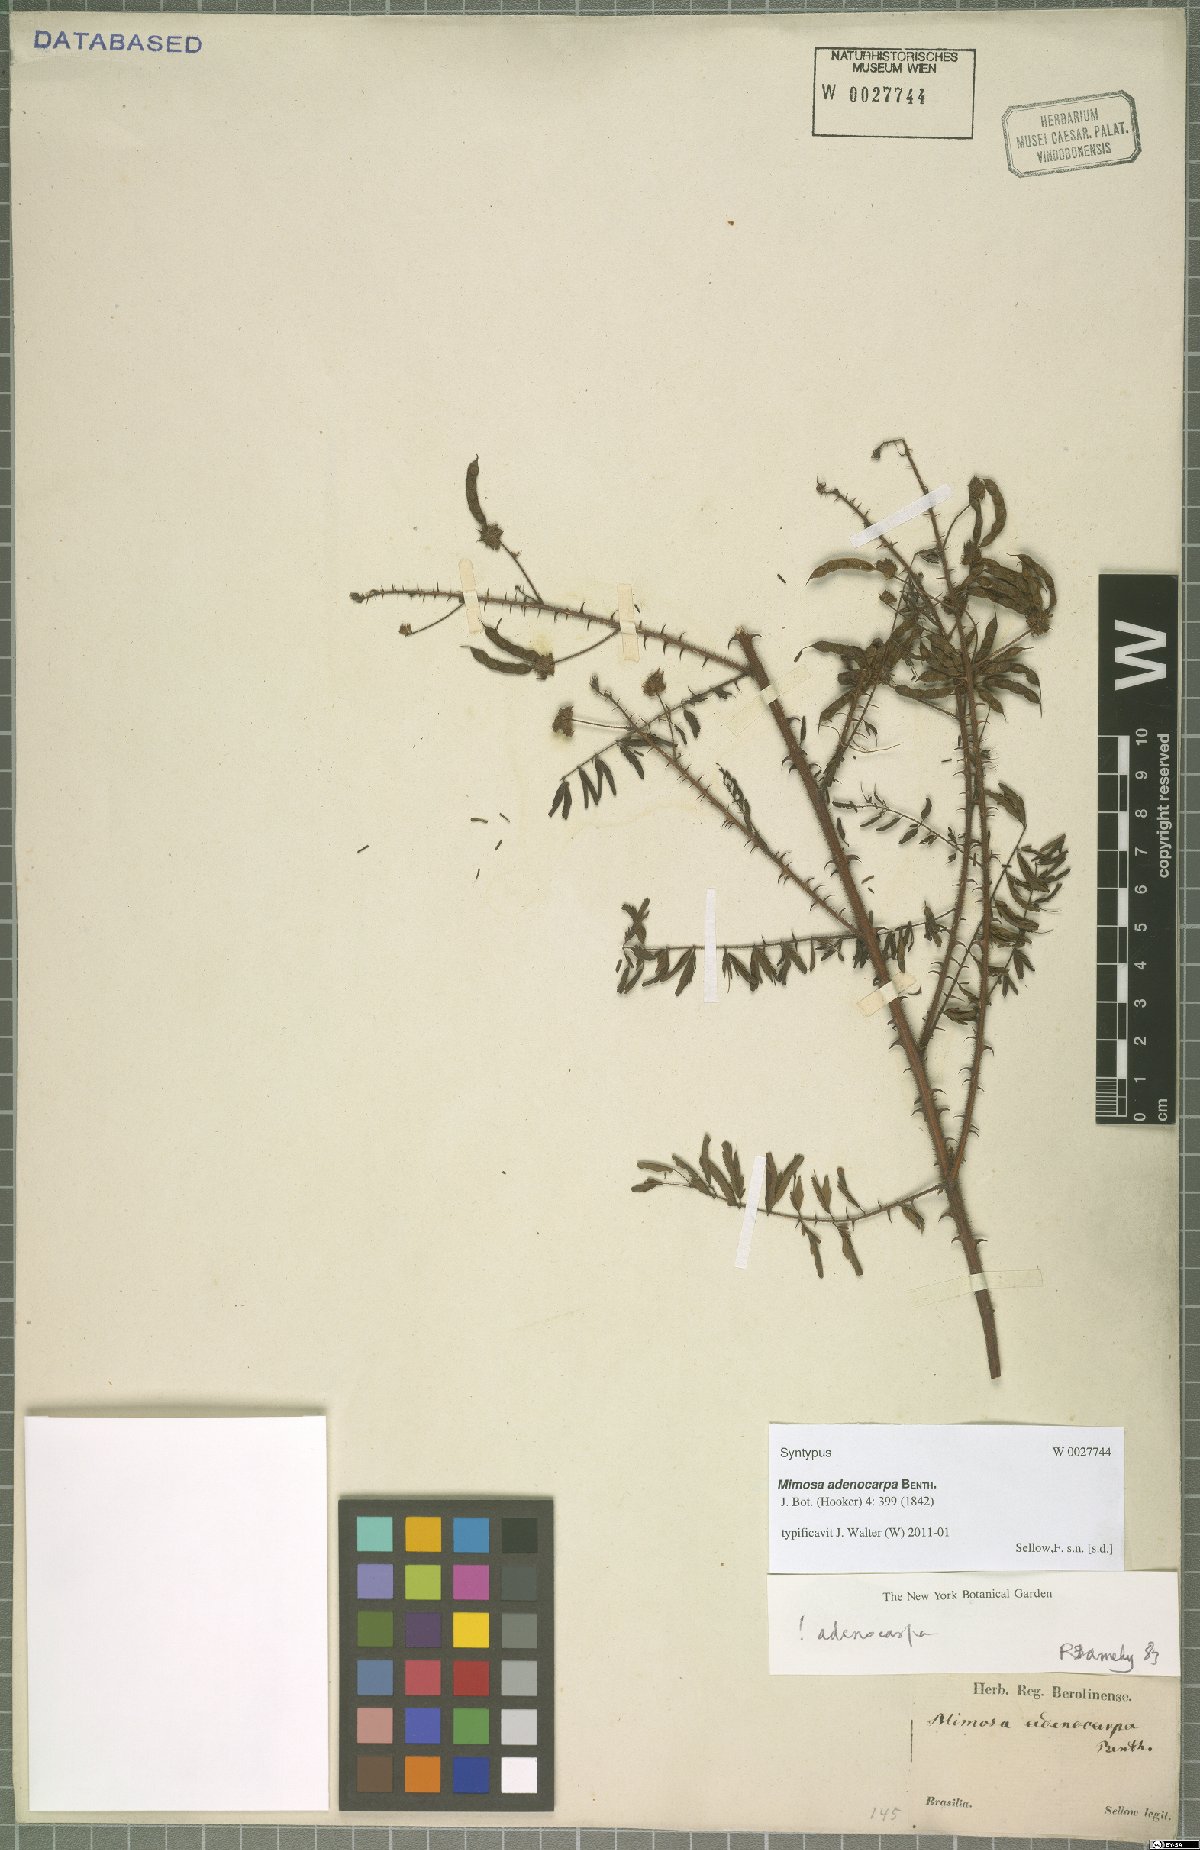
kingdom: Plantae
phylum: Tracheophyta
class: Magnoliopsida
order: Fabales
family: Fabaceae
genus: Mimosa
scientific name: Mimosa adenocarpa
